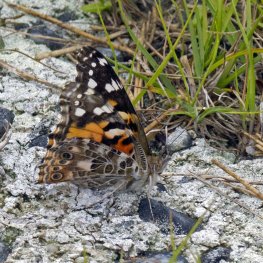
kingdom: Animalia
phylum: Arthropoda
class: Insecta
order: Lepidoptera
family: Nymphalidae
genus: Vanessa
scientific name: Vanessa cardui
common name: Painted Lady
